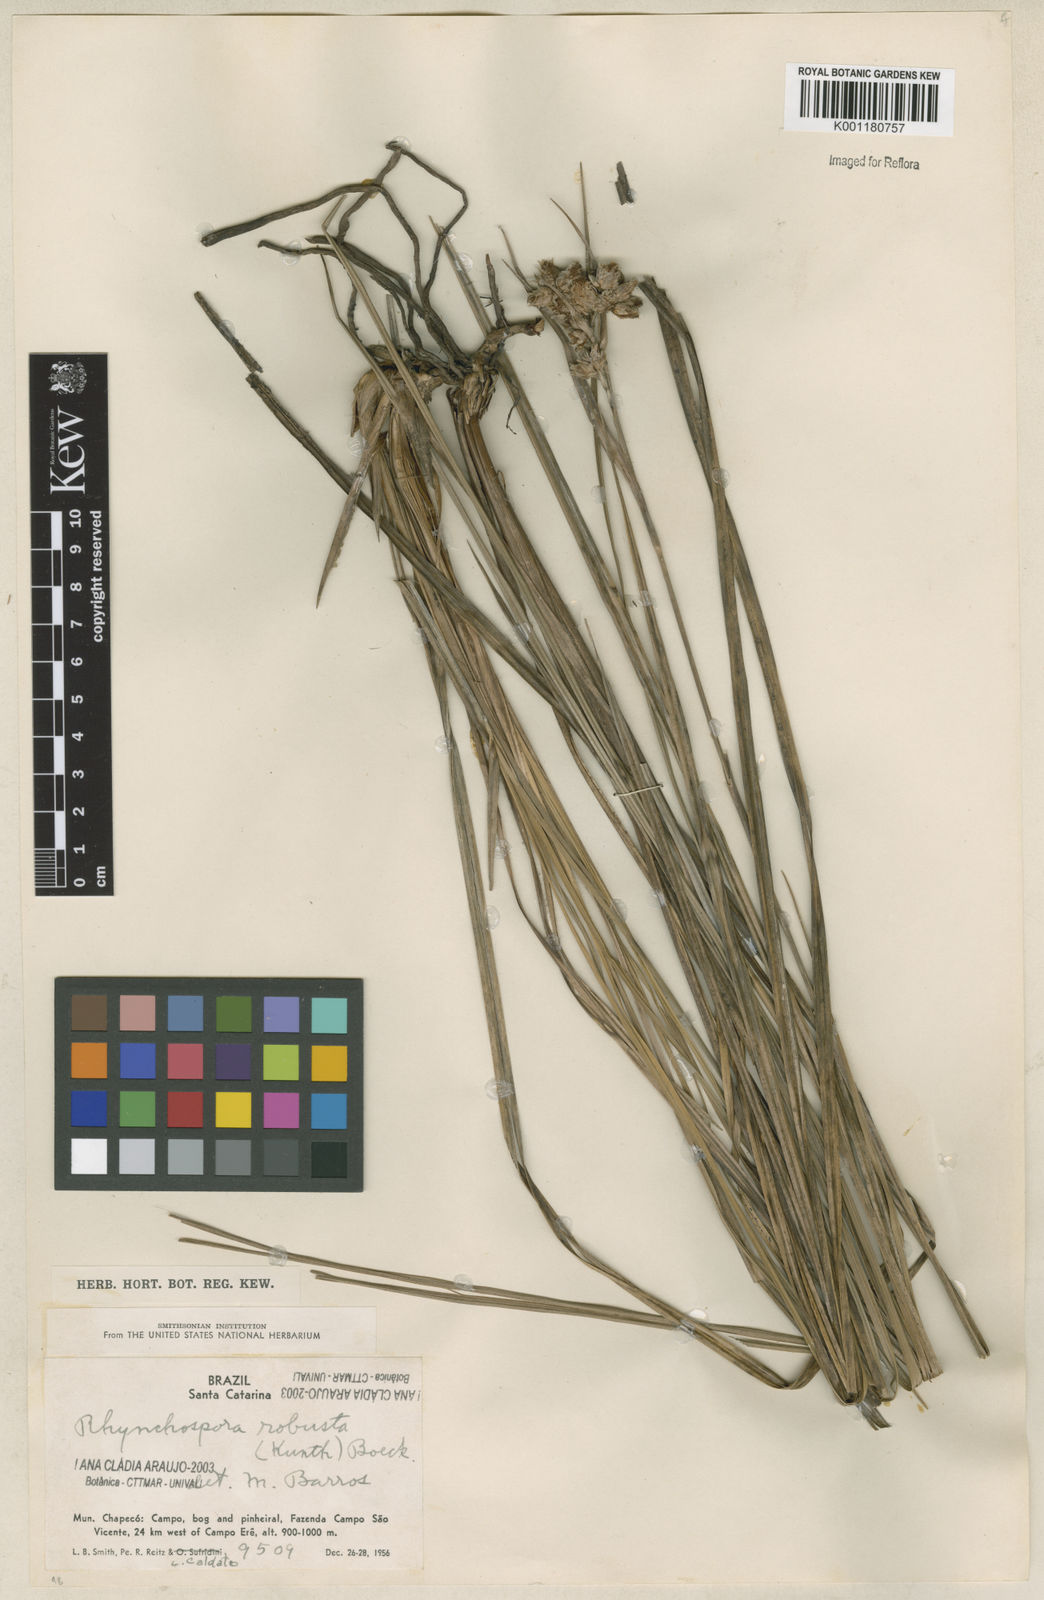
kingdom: Plantae
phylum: Tracheophyta
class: Liliopsida
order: Poales
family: Cyperaceae
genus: Rhynchospora
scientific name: Rhynchospora robusta
